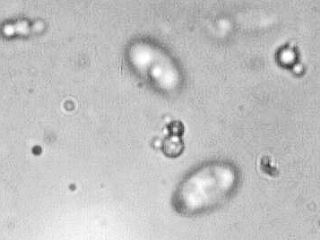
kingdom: Fungi
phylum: Basidiomycota
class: Agaricomycetes
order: Agaricales
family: Physalacriaceae
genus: Flammulina
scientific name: Flammulina velutipes
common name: gul fløjlsfod
